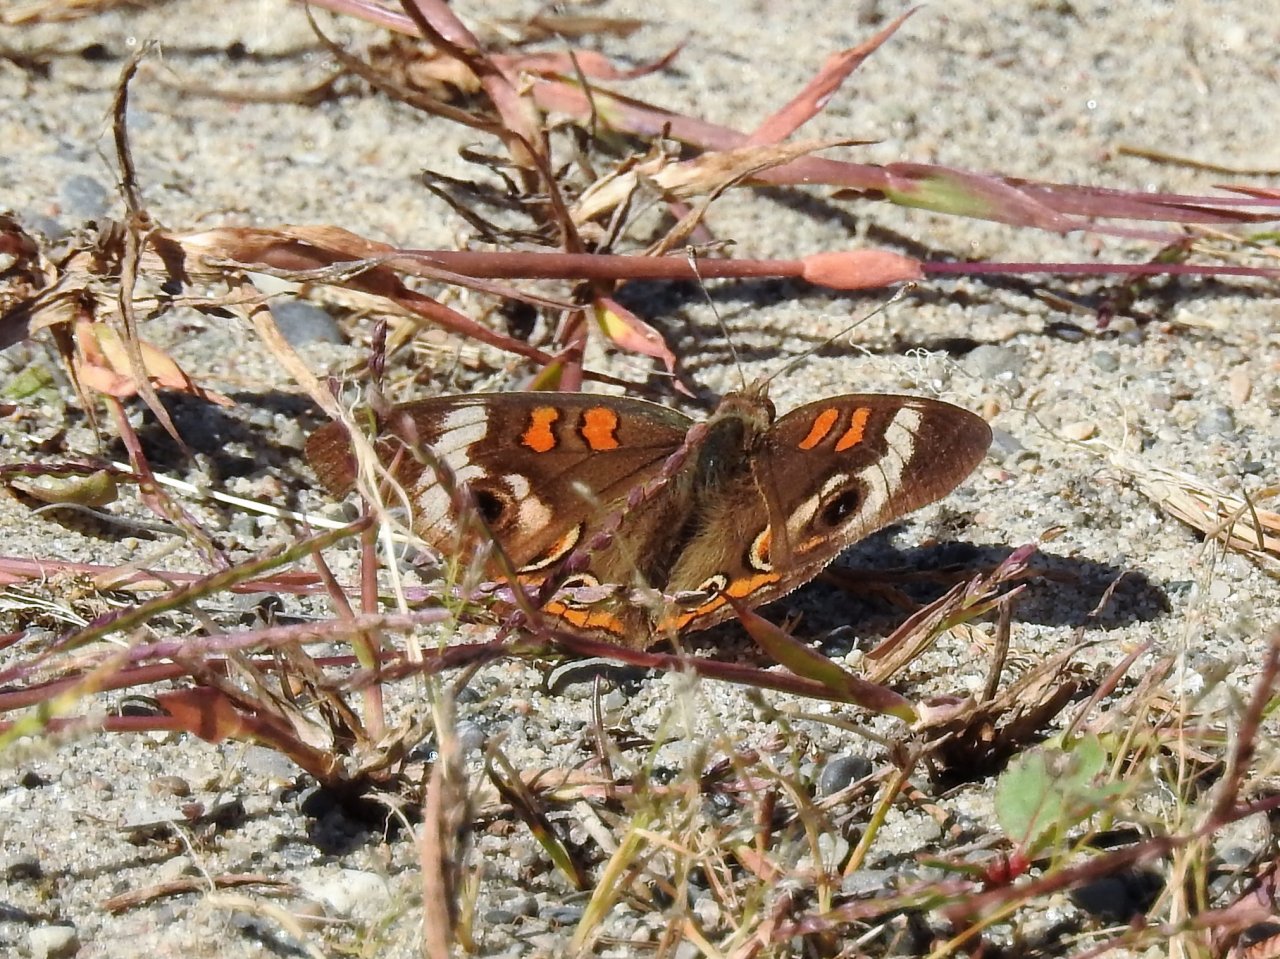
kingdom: Animalia
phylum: Arthropoda
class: Insecta
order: Lepidoptera
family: Nymphalidae
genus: Junonia
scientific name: Junonia coenia
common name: Common Buckeye
